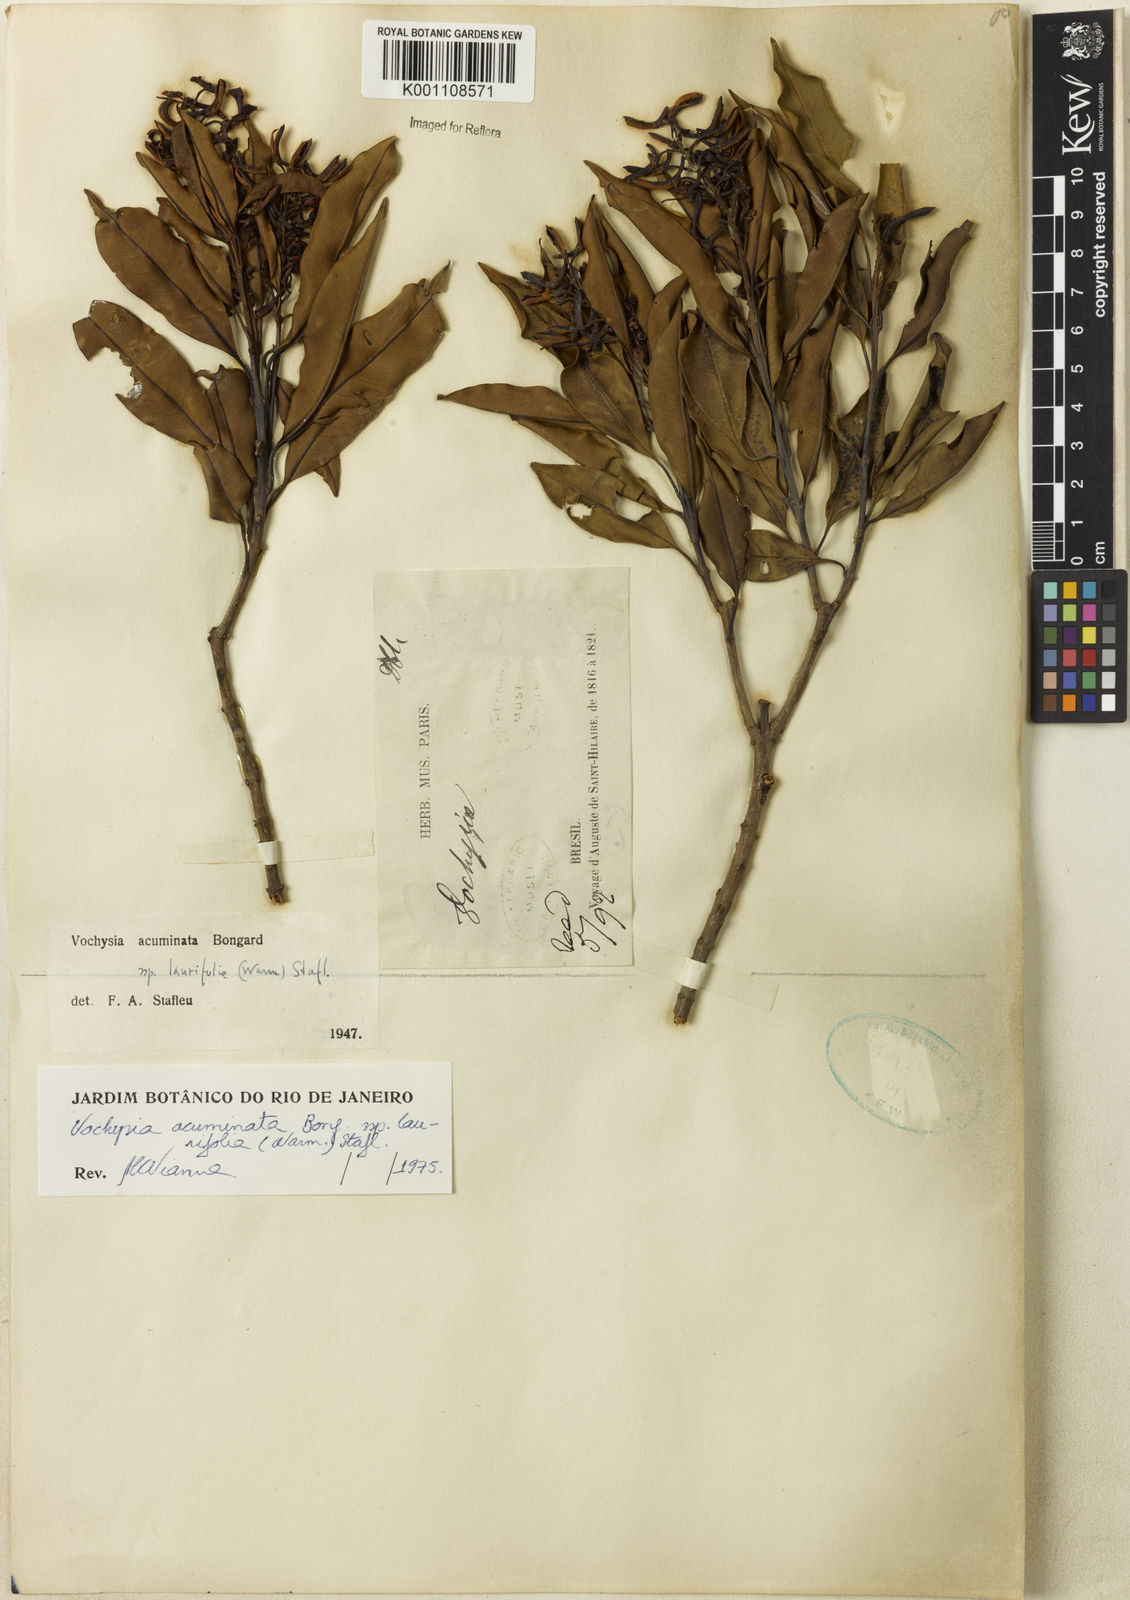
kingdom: Plantae
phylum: Tracheophyta
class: Magnoliopsida
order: Myrtales
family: Vochysiaceae
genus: Vochysia
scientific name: Vochysia laurifolia
